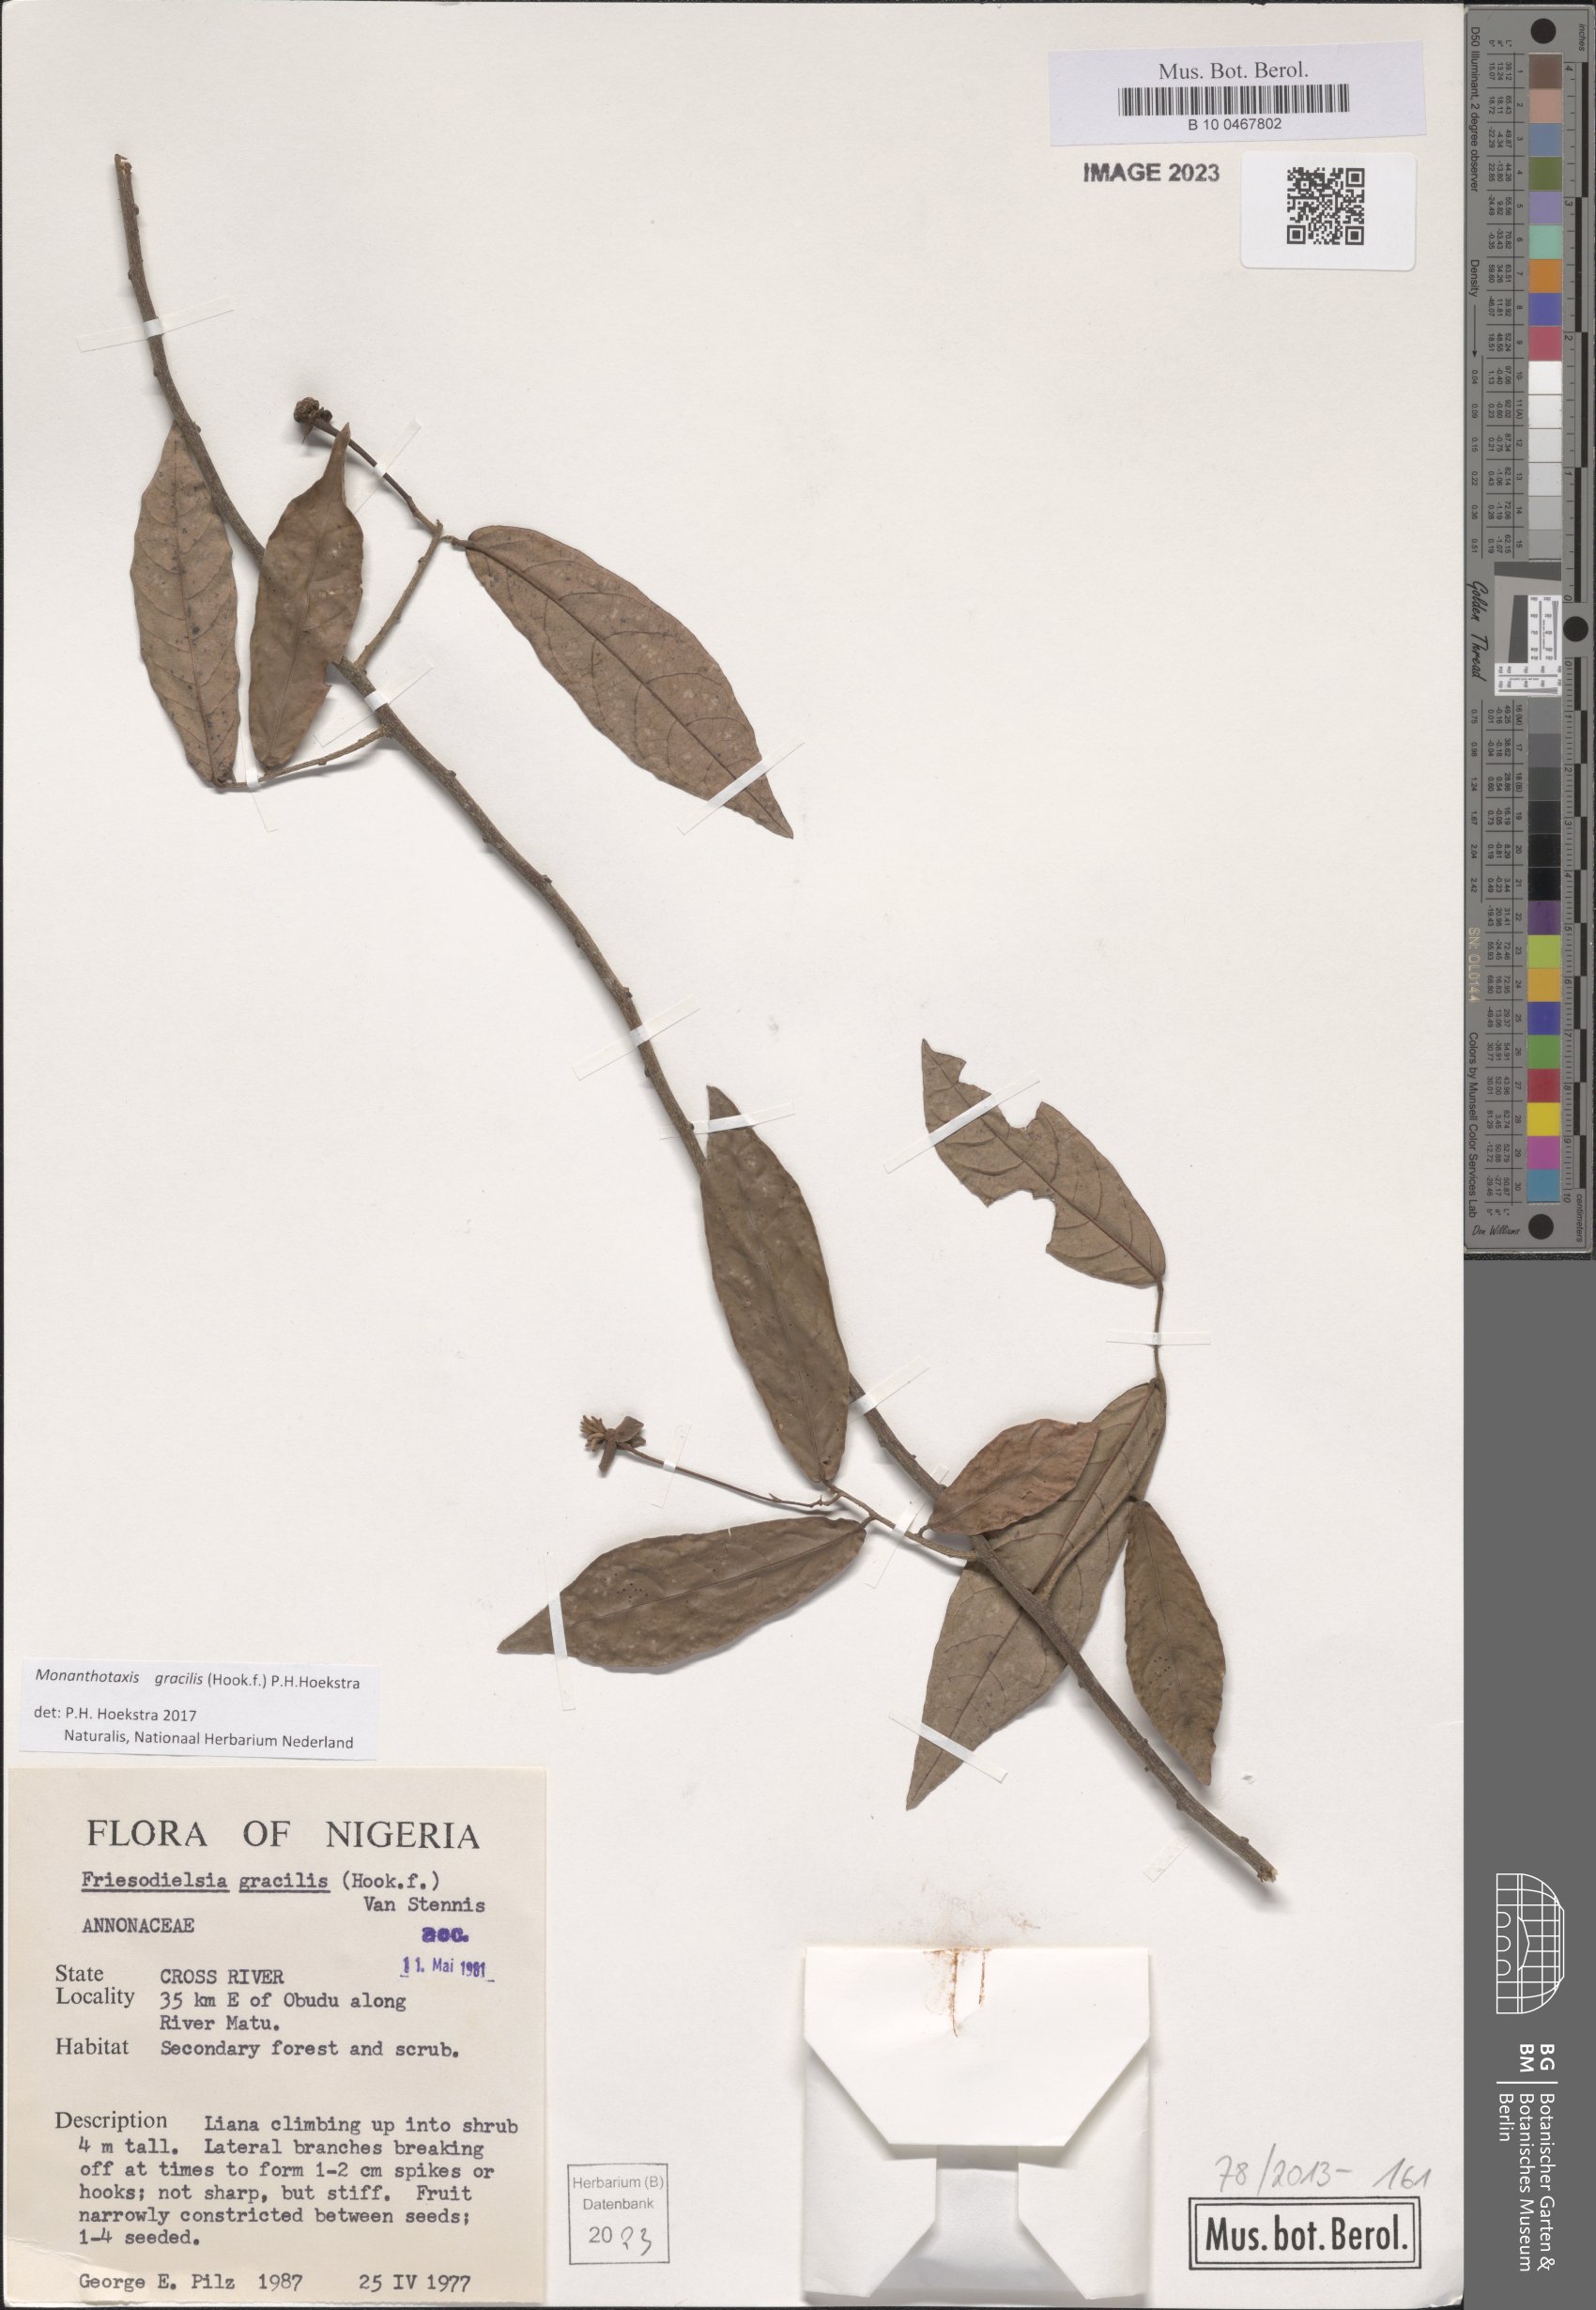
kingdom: Plantae
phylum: Tracheophyta
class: Magnoliopsida
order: Magnoliales
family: Annonaceae
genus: Friesodielsia
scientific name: Friesodielsia gracilis
